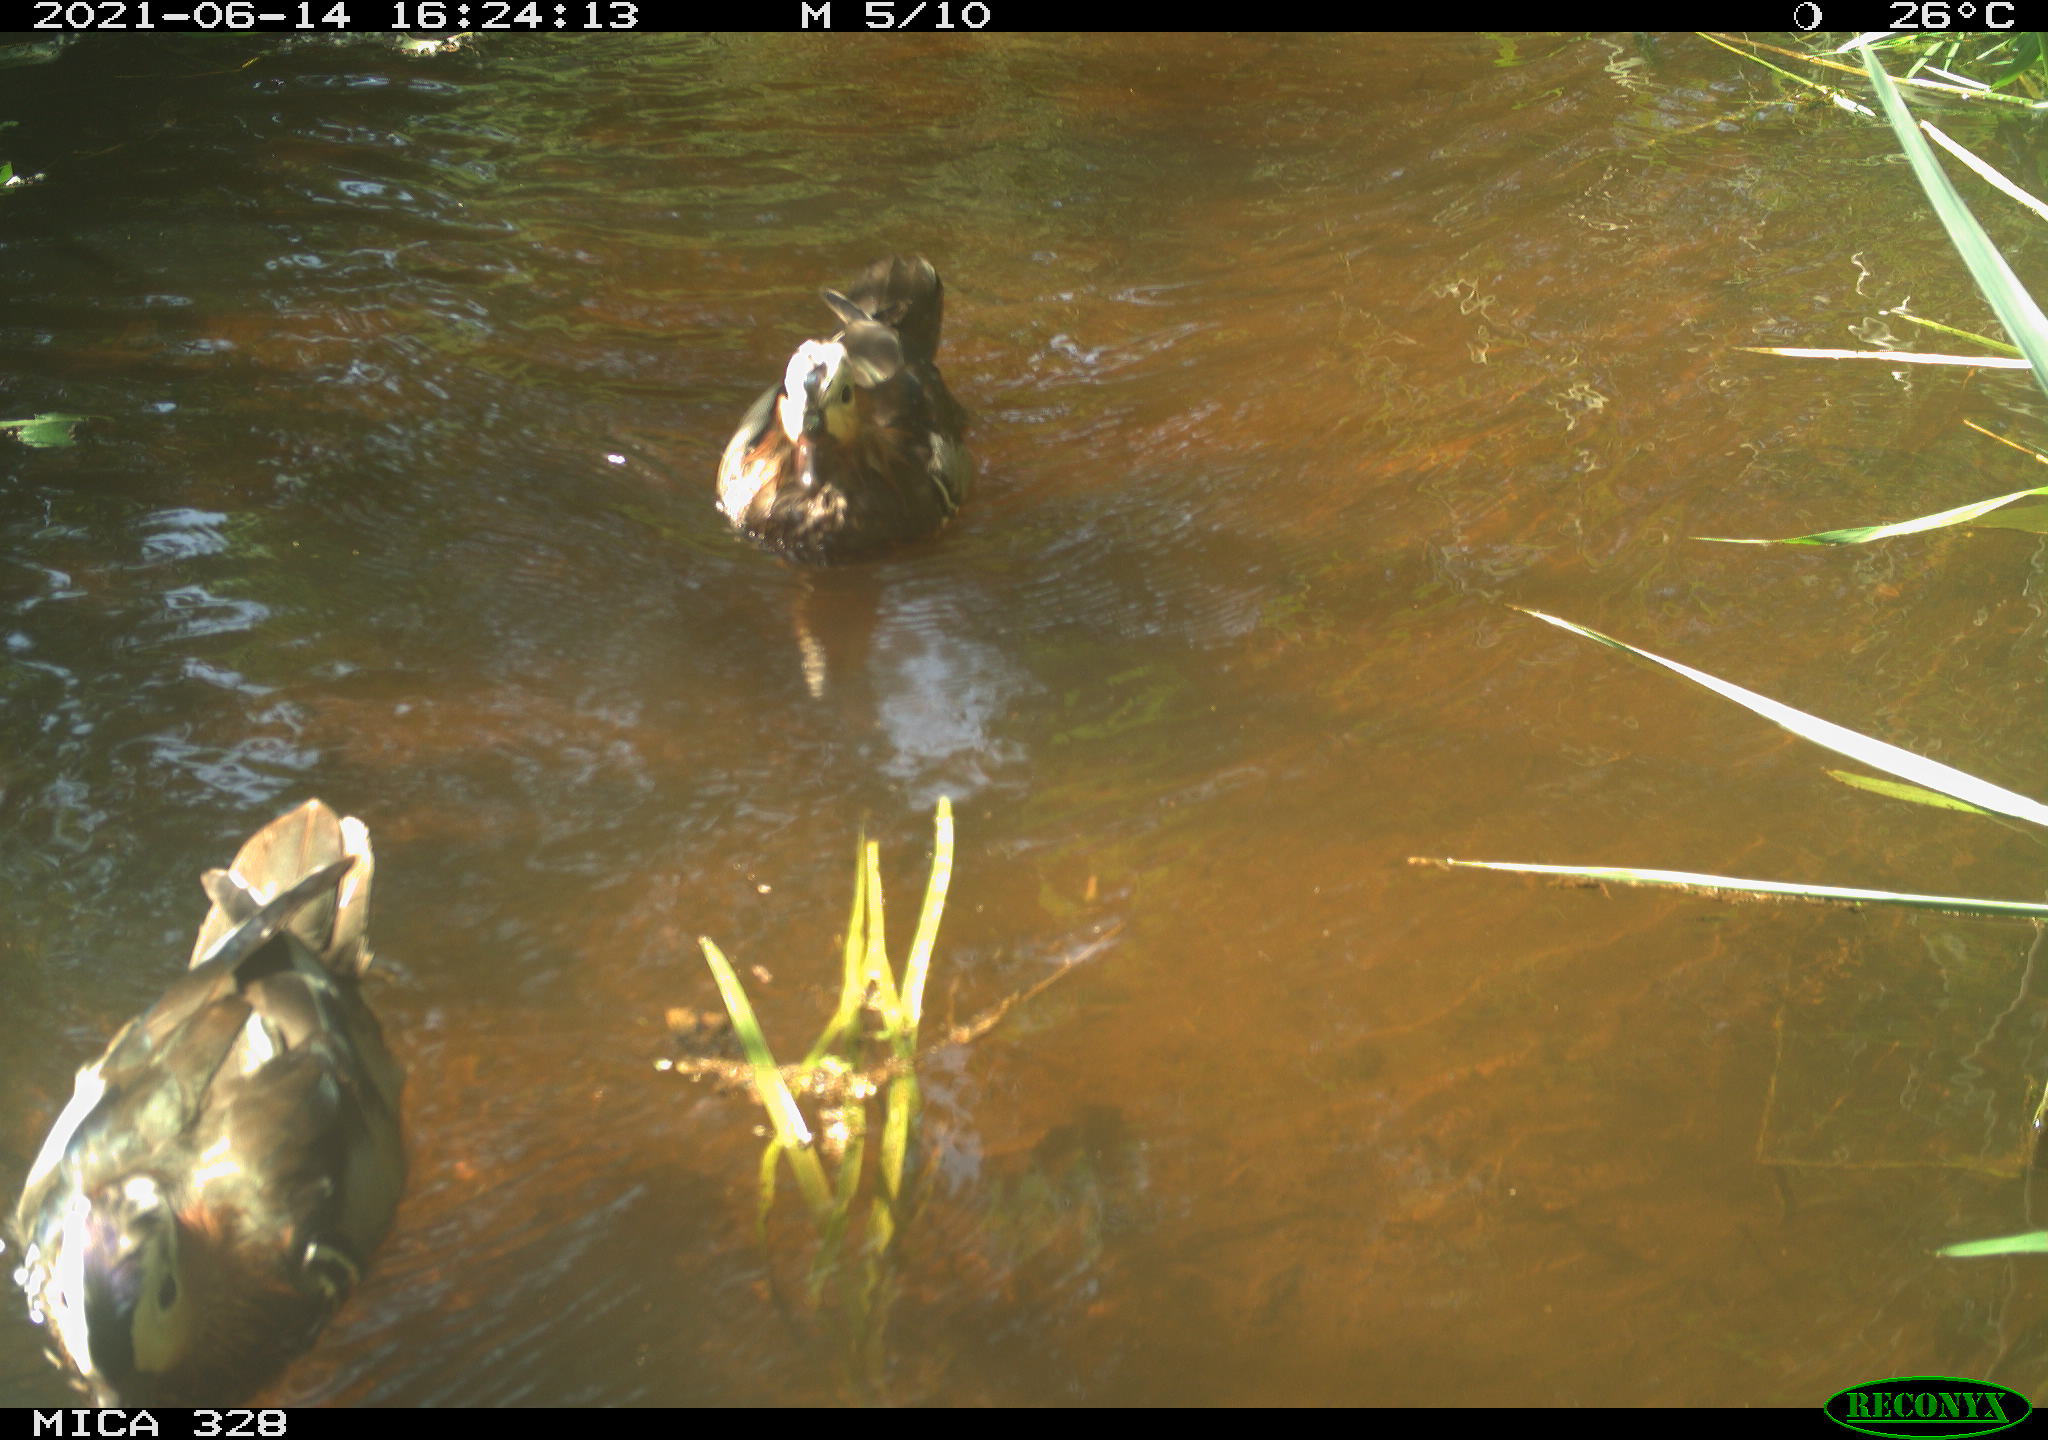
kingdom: Animalia
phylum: Chordata
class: Aves
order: Anseriformes
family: Anatidae
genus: Aix
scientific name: Aix galericulata
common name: Mandarin duck
